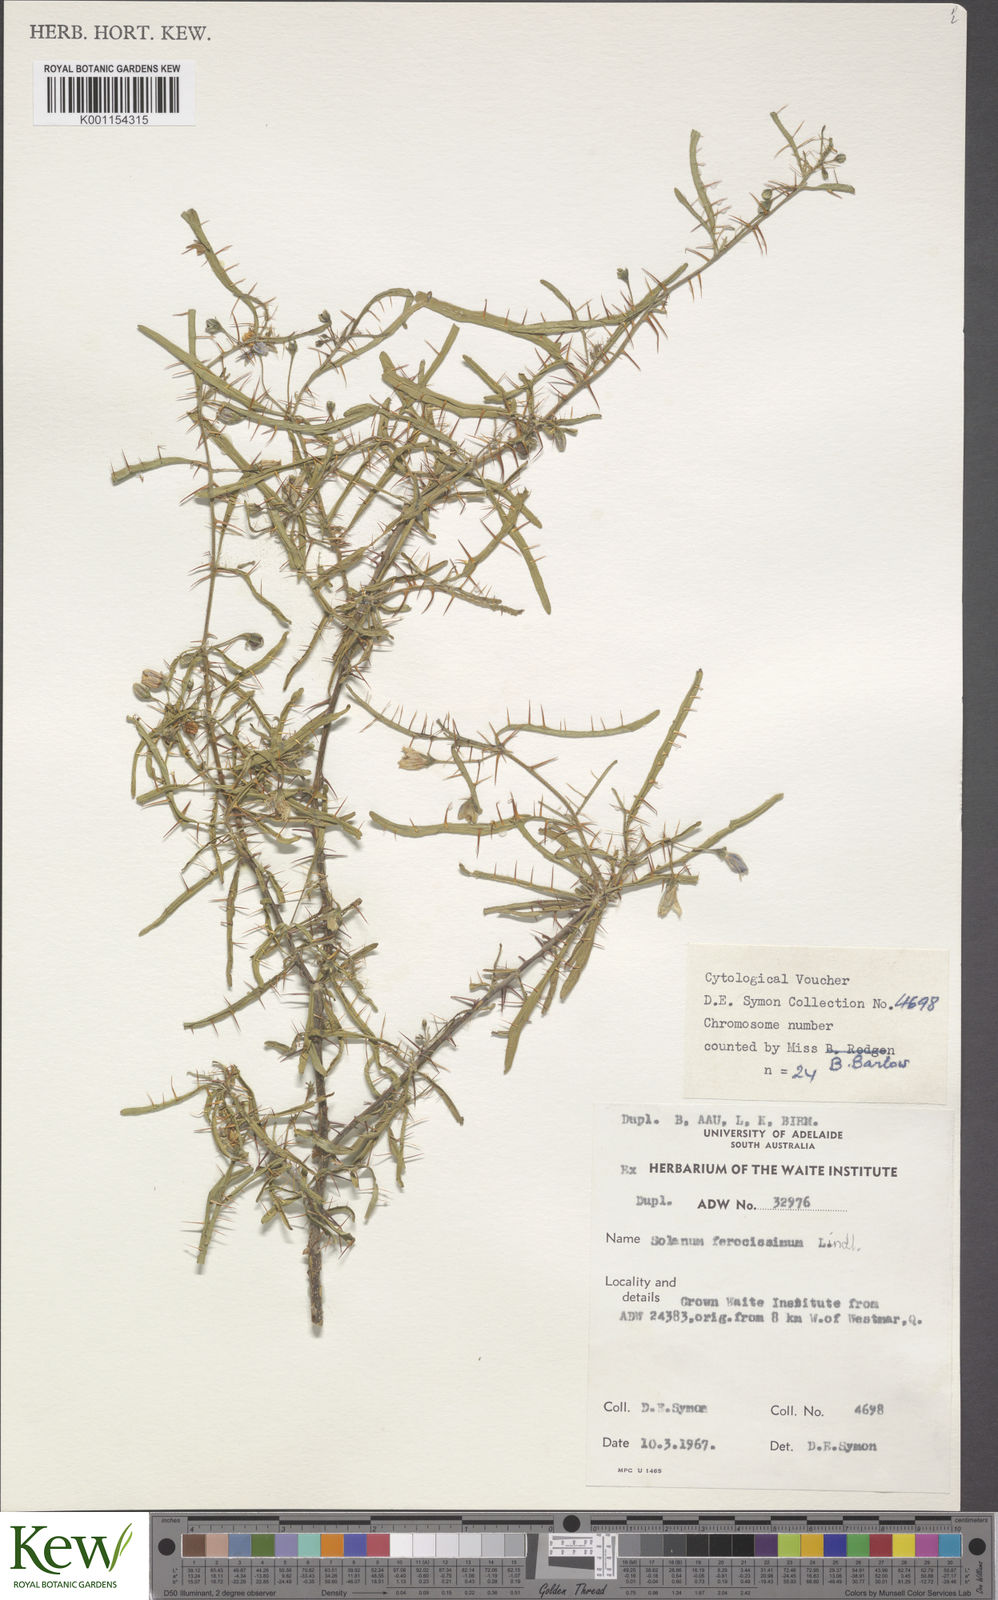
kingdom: Plantae
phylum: Tracheophyta
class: Magnoliopsida
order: Solanales
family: Solanaceae
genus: Solanum
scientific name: Solanum ferocissimum
